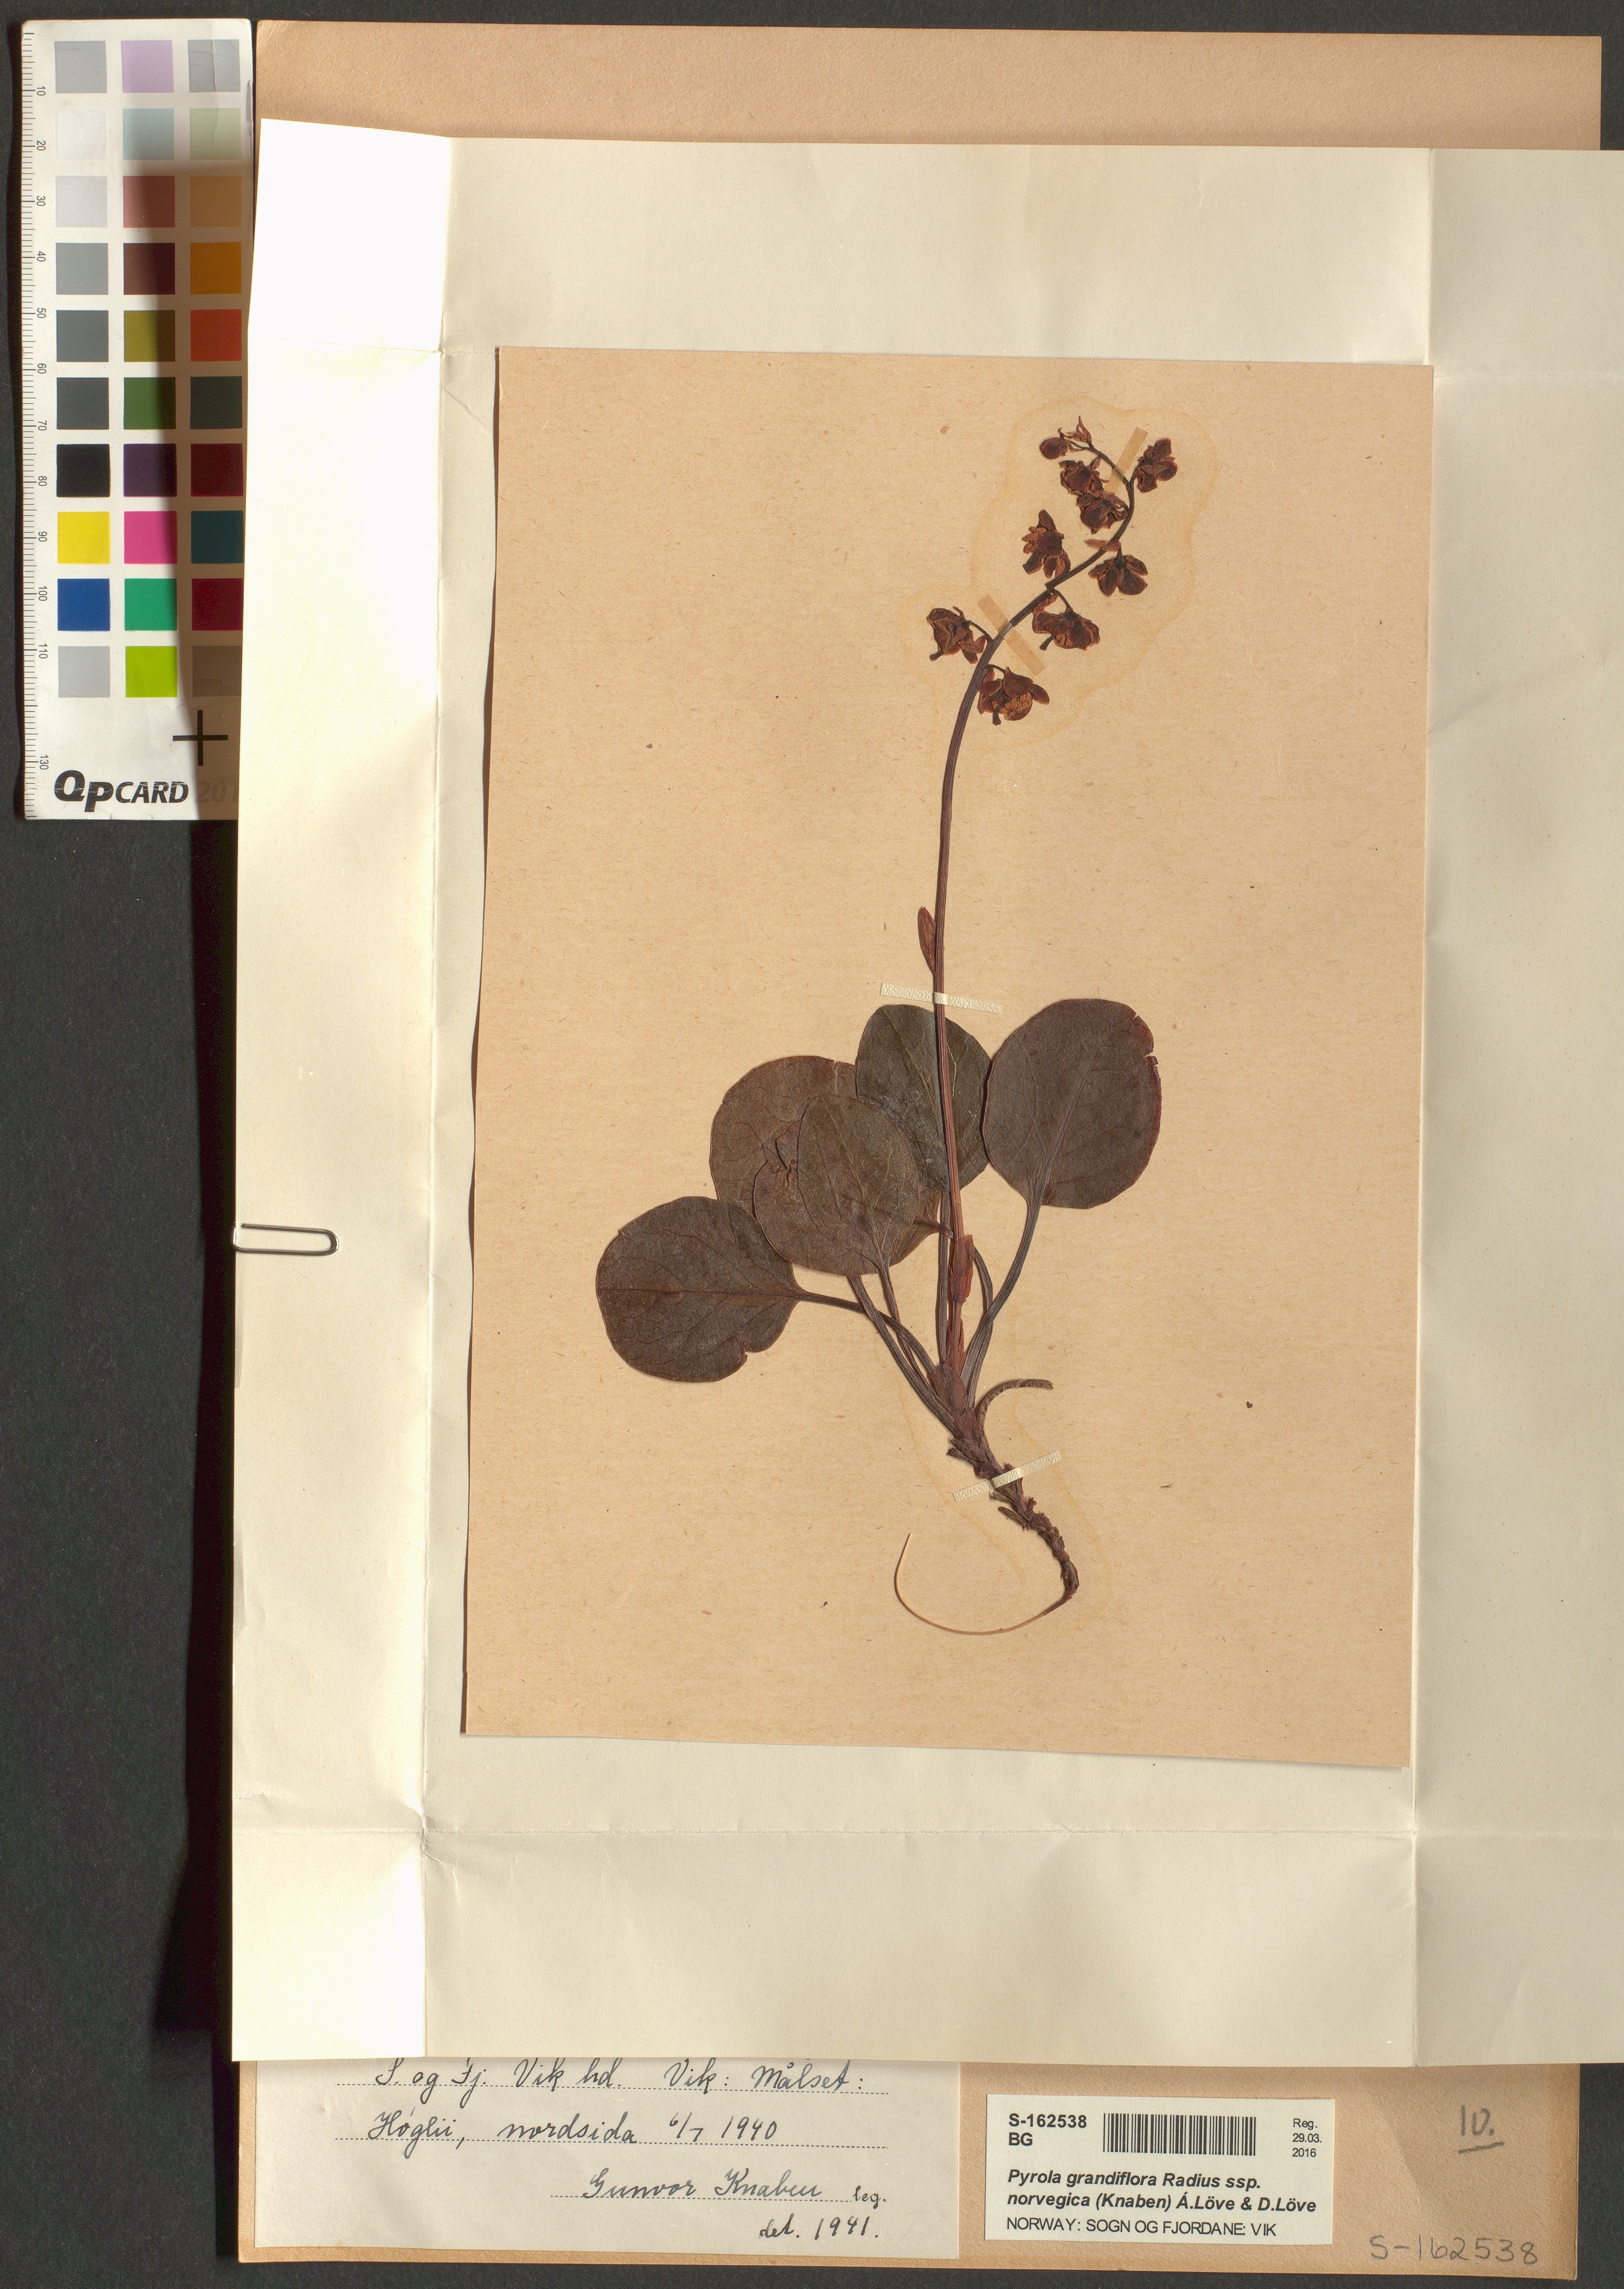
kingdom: Plantae
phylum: Tracheophyta
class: Magnoliopsida
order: Ericales
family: Ericaceae
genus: Pyrola
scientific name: Pyrola rotundifolia
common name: Round-leaved wintergreen
